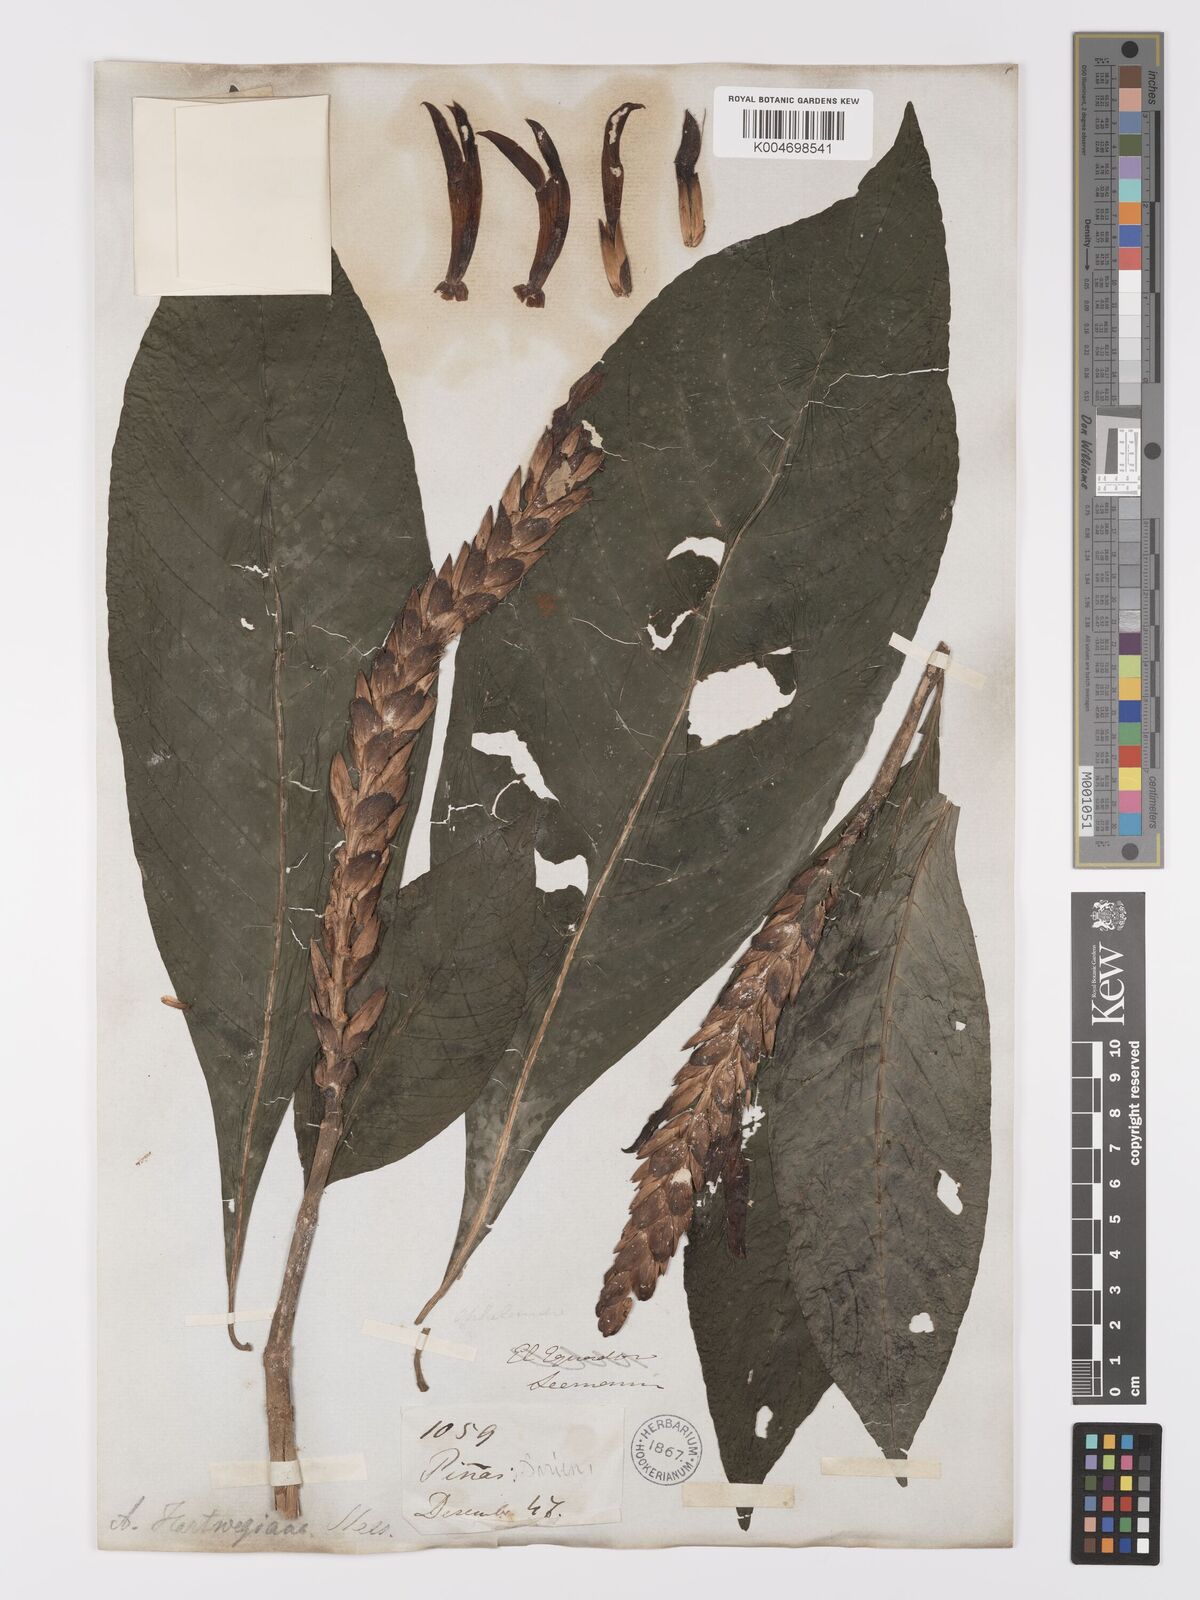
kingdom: Plantae
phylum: Tracheophyta
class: Magnoliopsida
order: Lamiales
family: Acanthaceae
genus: Aphelandra
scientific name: Aphelandra hartwegiana
